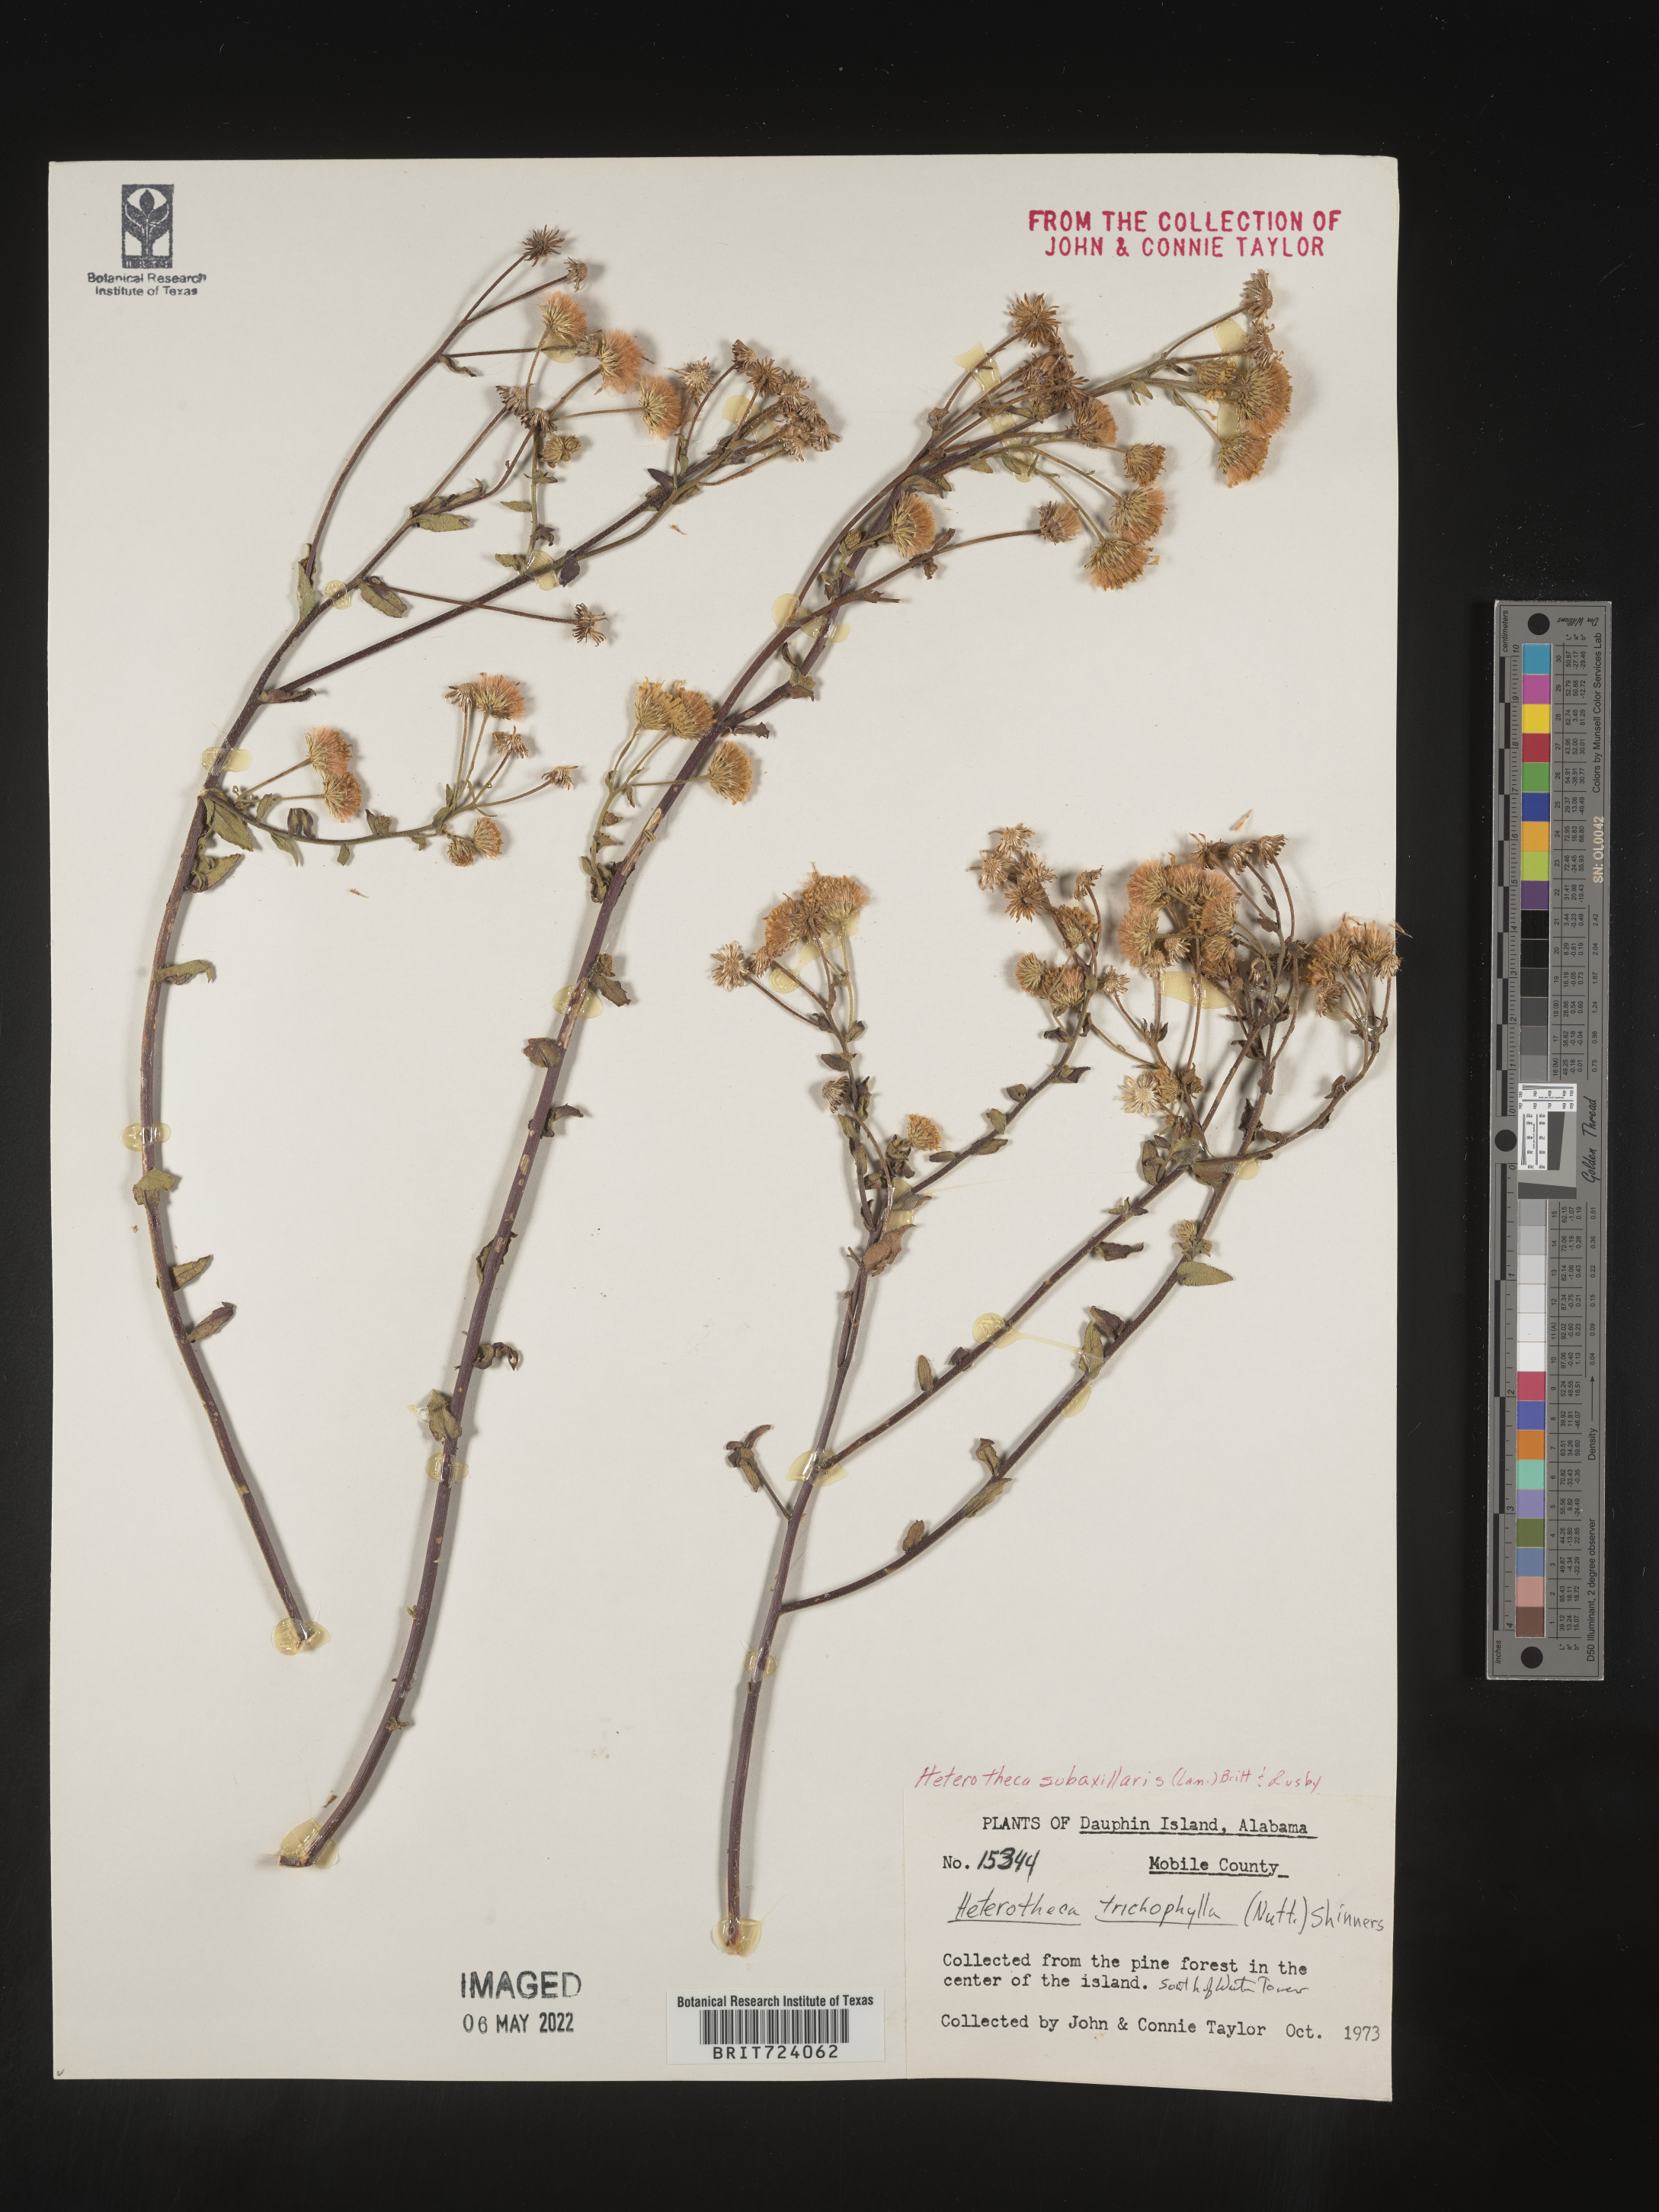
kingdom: Plantae
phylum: Tracheophyta
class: Magnoliopsida
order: Asterales
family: Asteraceae
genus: Heterotheca
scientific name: Heterotheca subaxillaris
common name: Camphorweed
